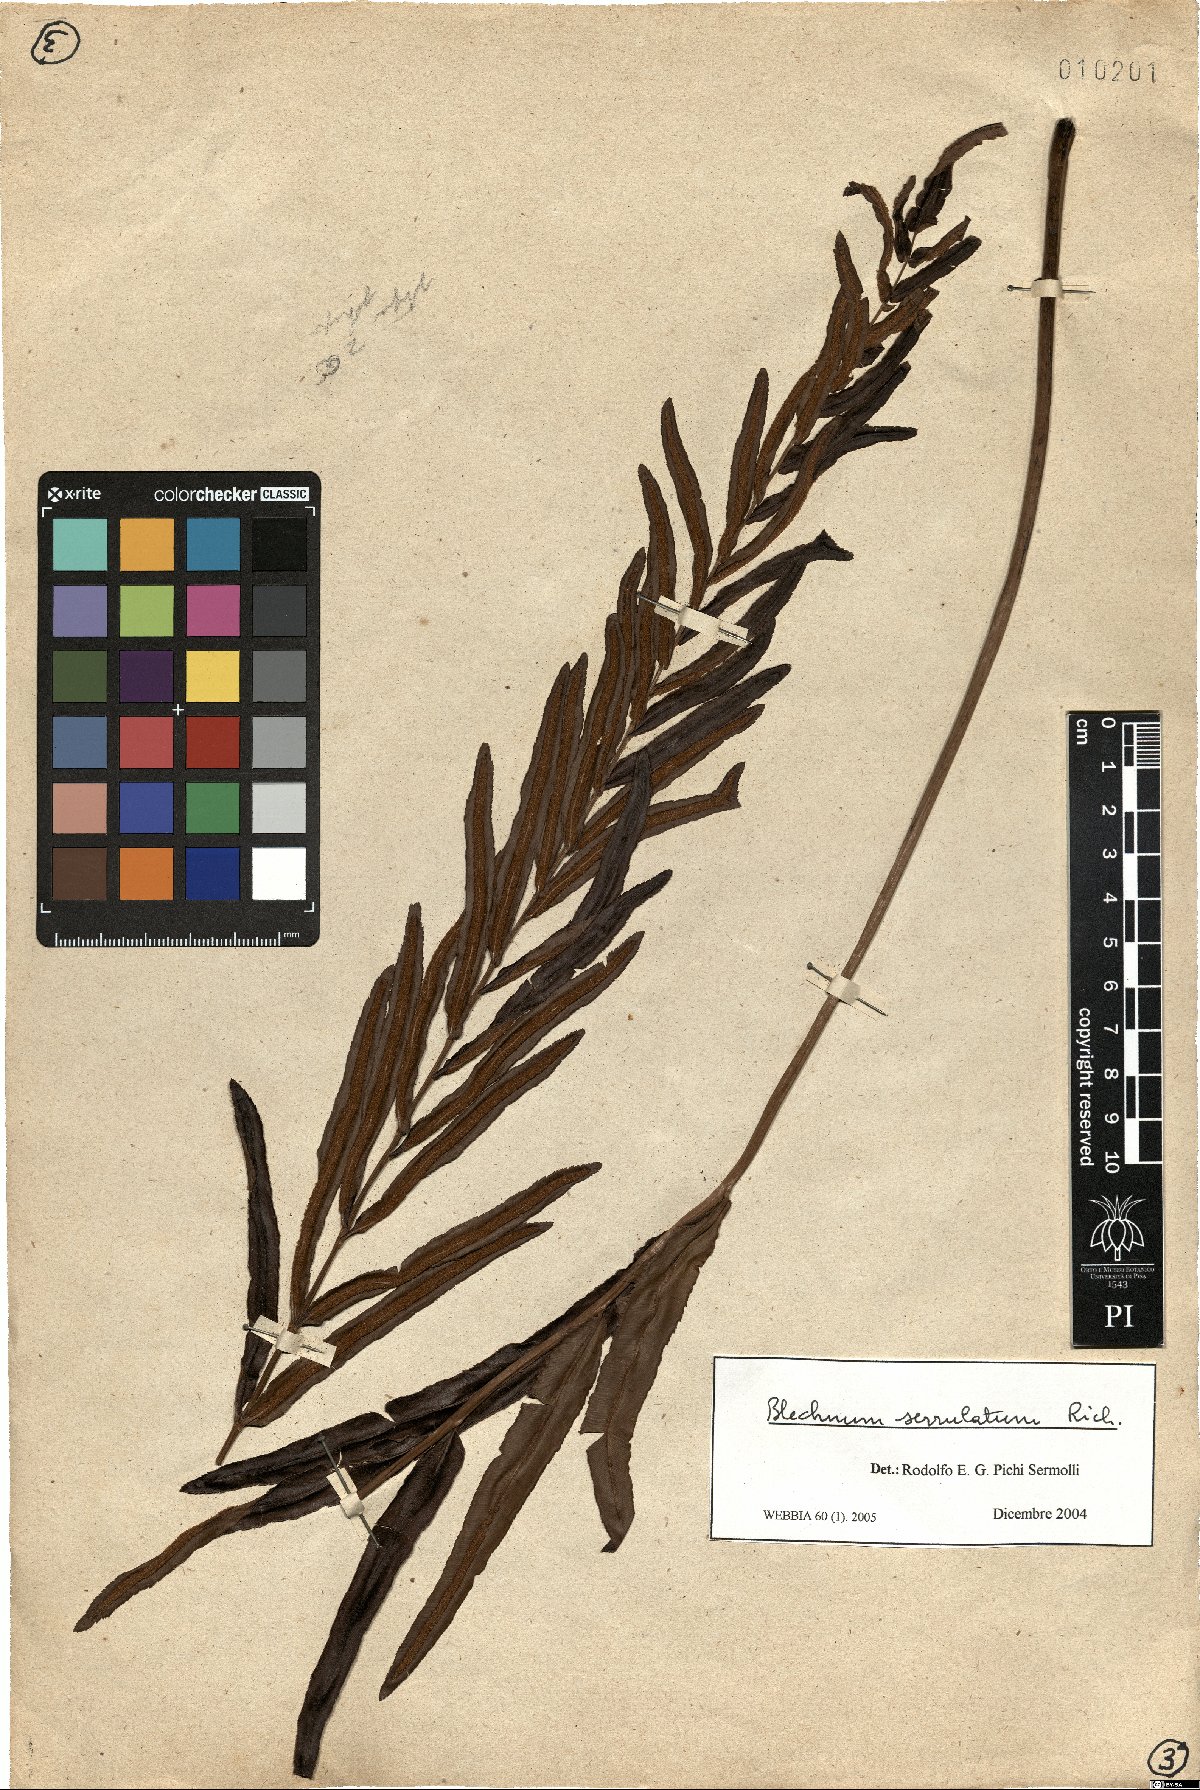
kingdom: Plantae
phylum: Tracheophyta
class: Polypodiopsida
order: Polypodiales
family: Blechnaceae
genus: Telmatoblechnum
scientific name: Telmatoblechnum serrulatum
